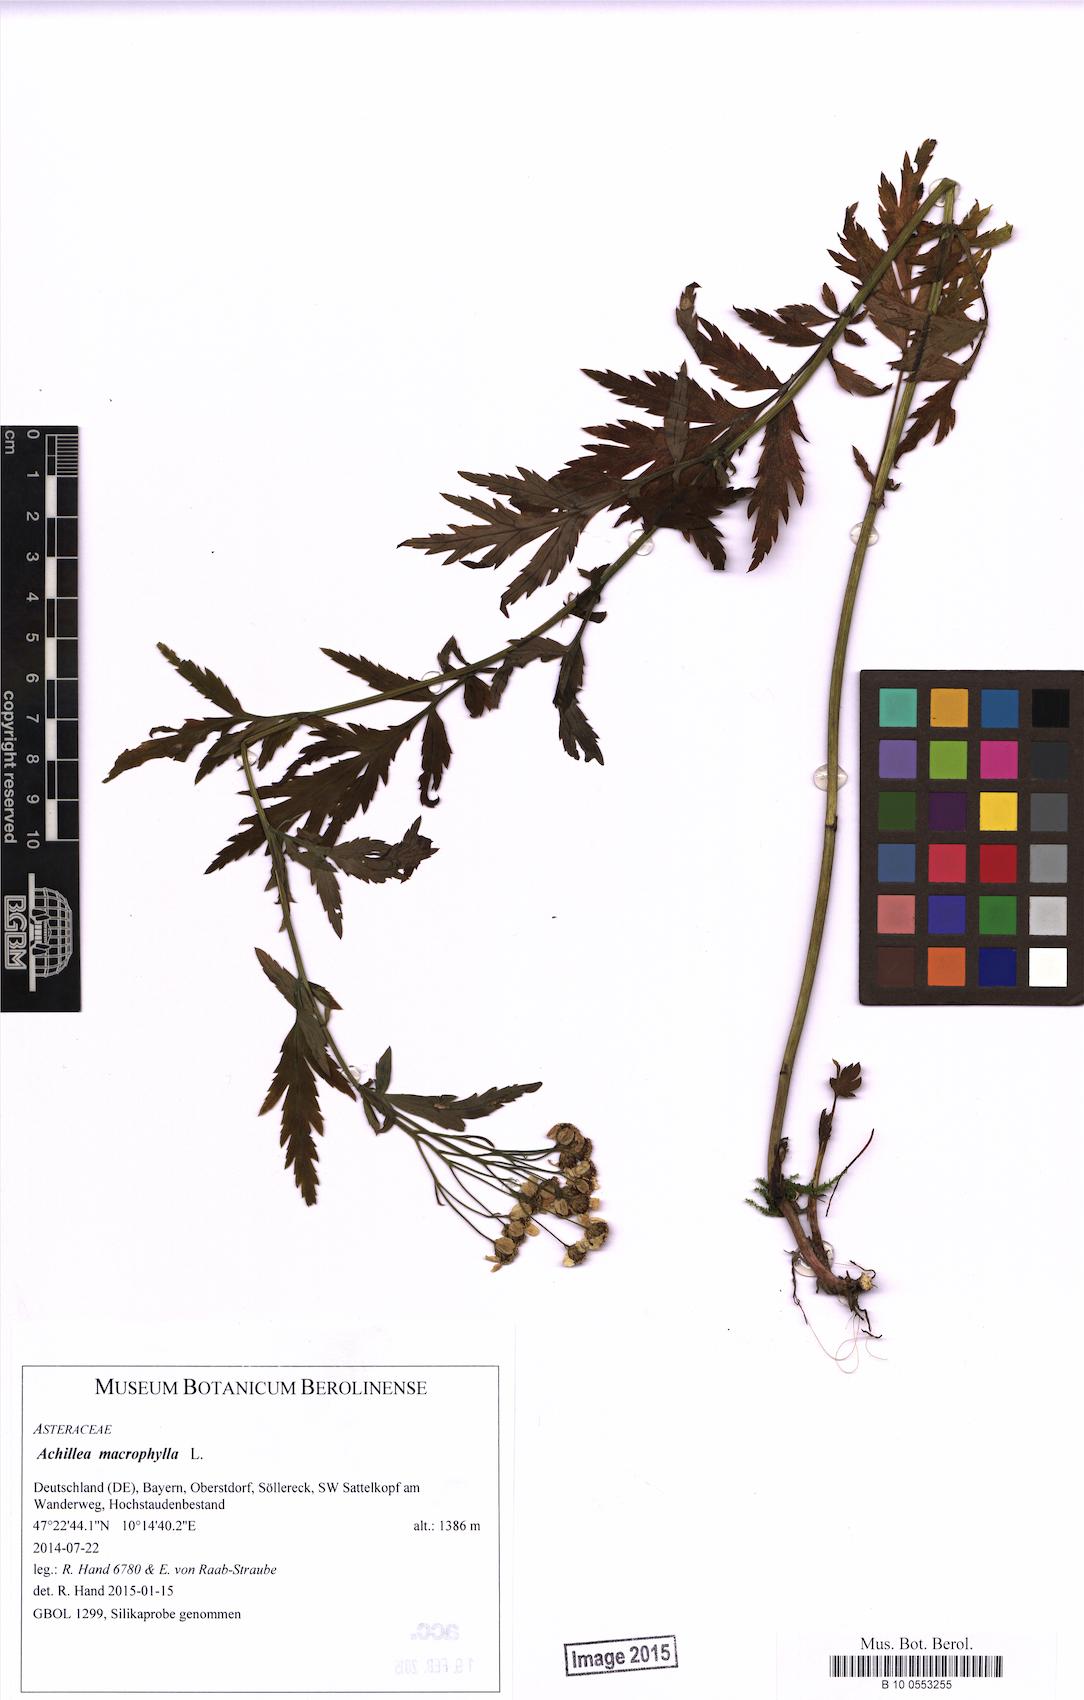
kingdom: Plantae
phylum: Tracheophyta
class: Magnoliopsida
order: Asterales
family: Asteraceae
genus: Achillea
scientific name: Achillea macrophylla
